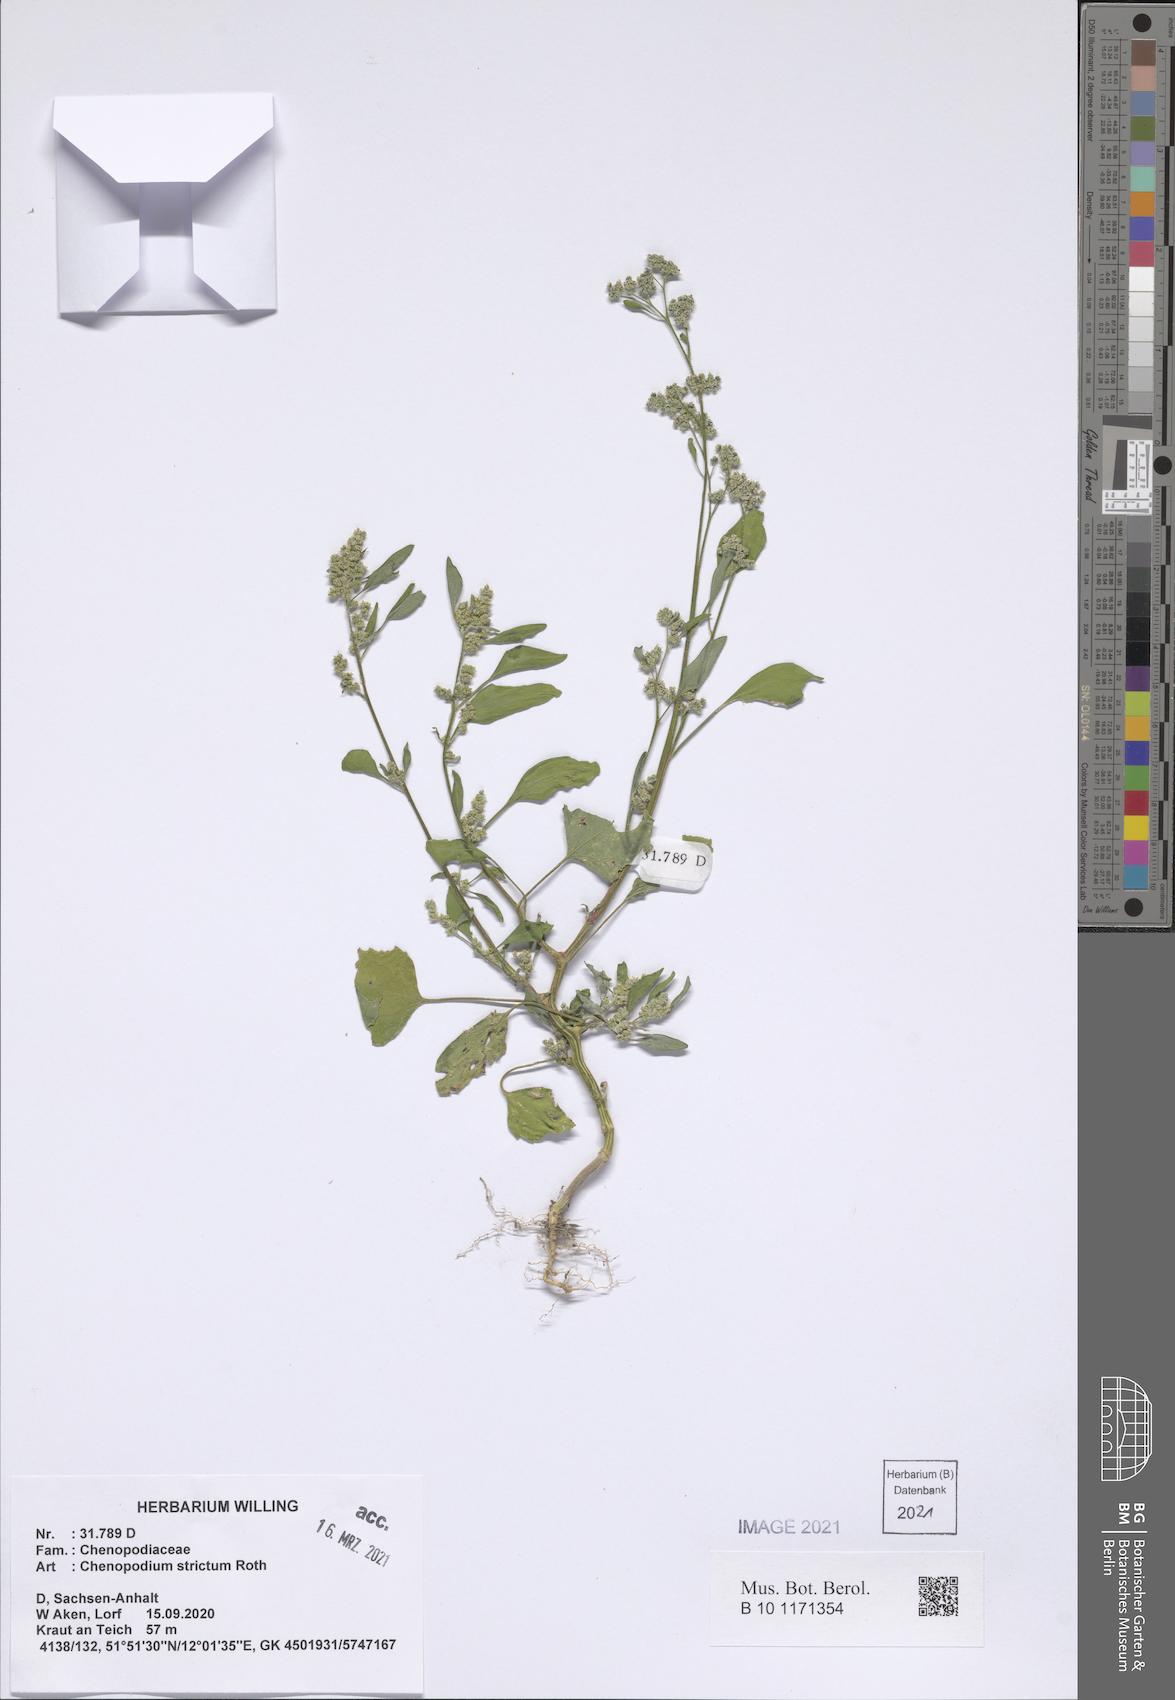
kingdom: Plantae
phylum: Tracheophyta
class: Magnoliopsida
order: Caryophyllales
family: Amaranthaceae
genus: Chenopodium
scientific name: Chenopodium album
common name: Fat-hen
